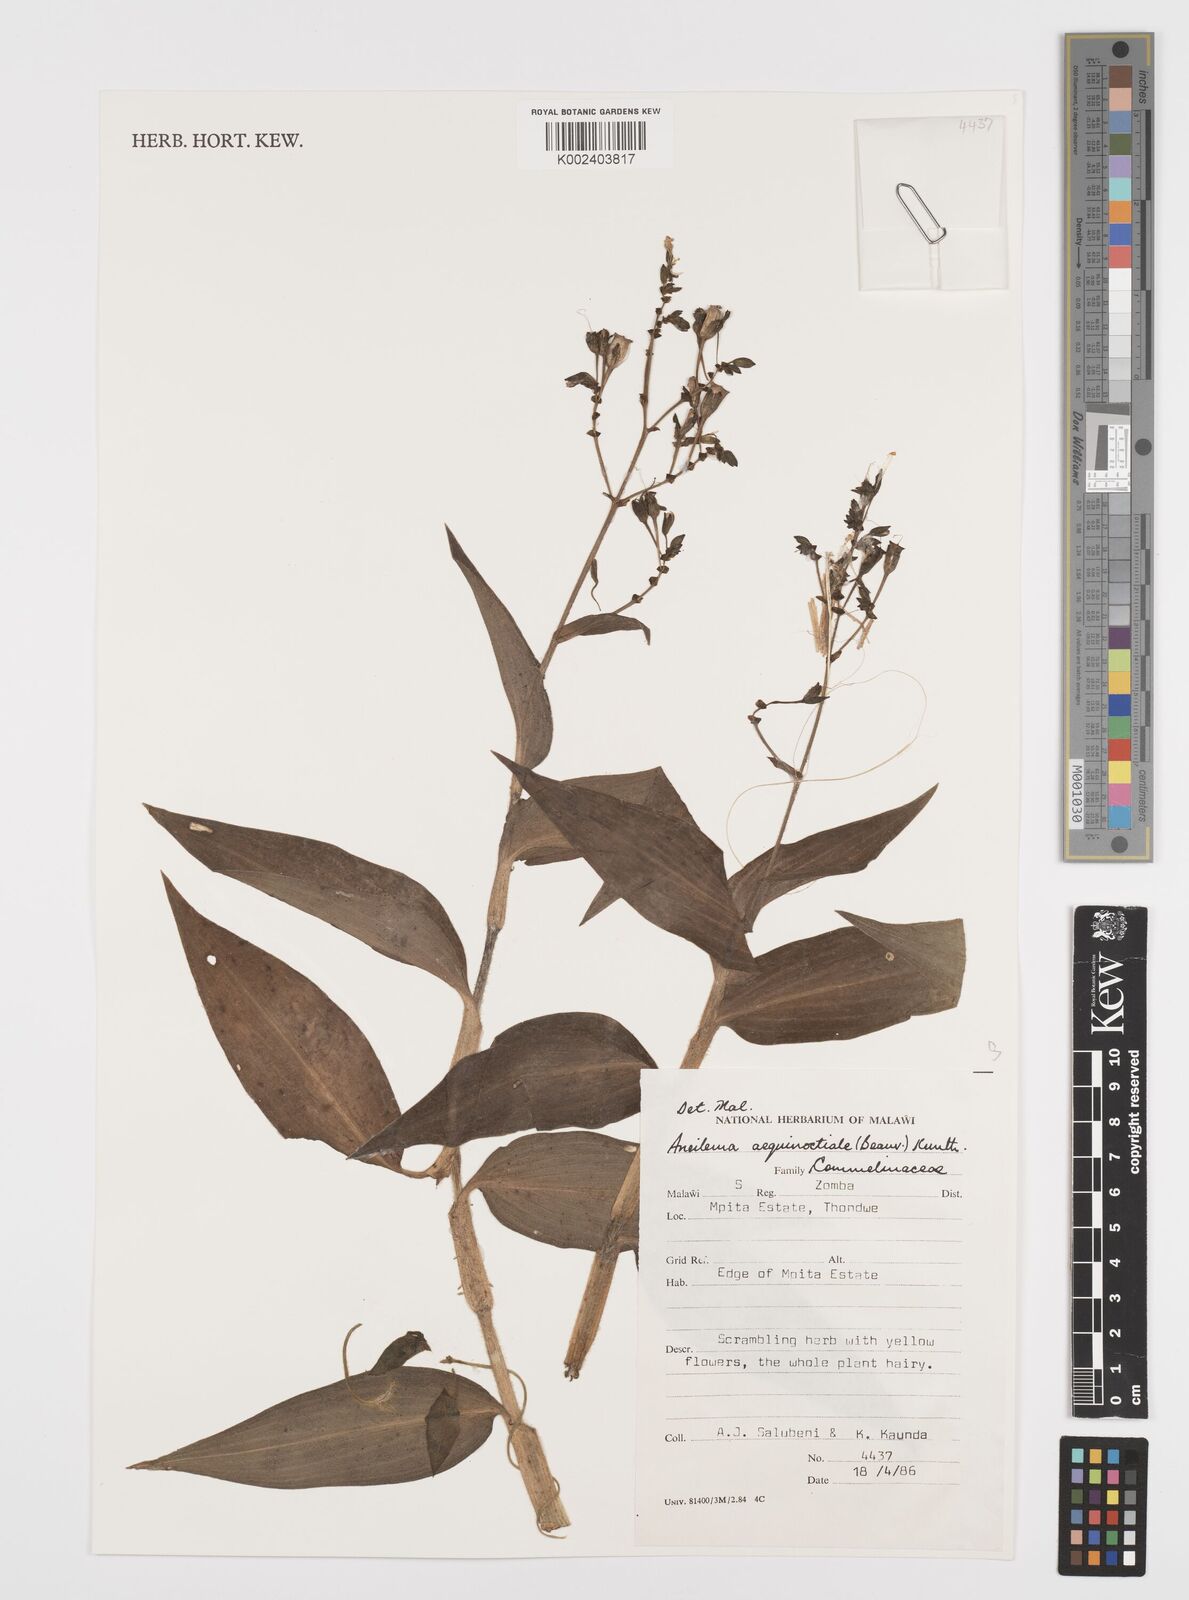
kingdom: Plantae
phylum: Tracheophyta
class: Liliopsida
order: Commelinales
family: Commelinaceae
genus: Aneilema
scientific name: Aneilema aequinoctiale
